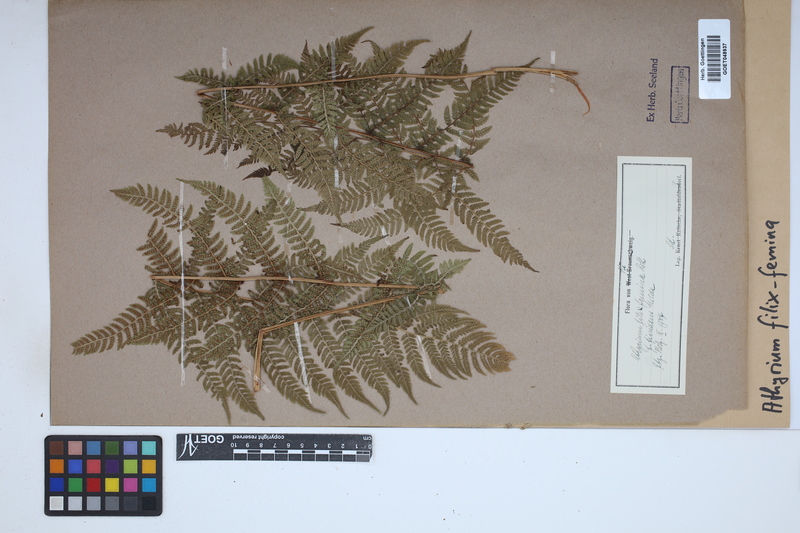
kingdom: Plantae
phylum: Tracheophyta
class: Polypodiopsida
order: Polypodiales
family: Athyriaceae
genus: Athyrium
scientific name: Athyrium filix-femina
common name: Lady fern
